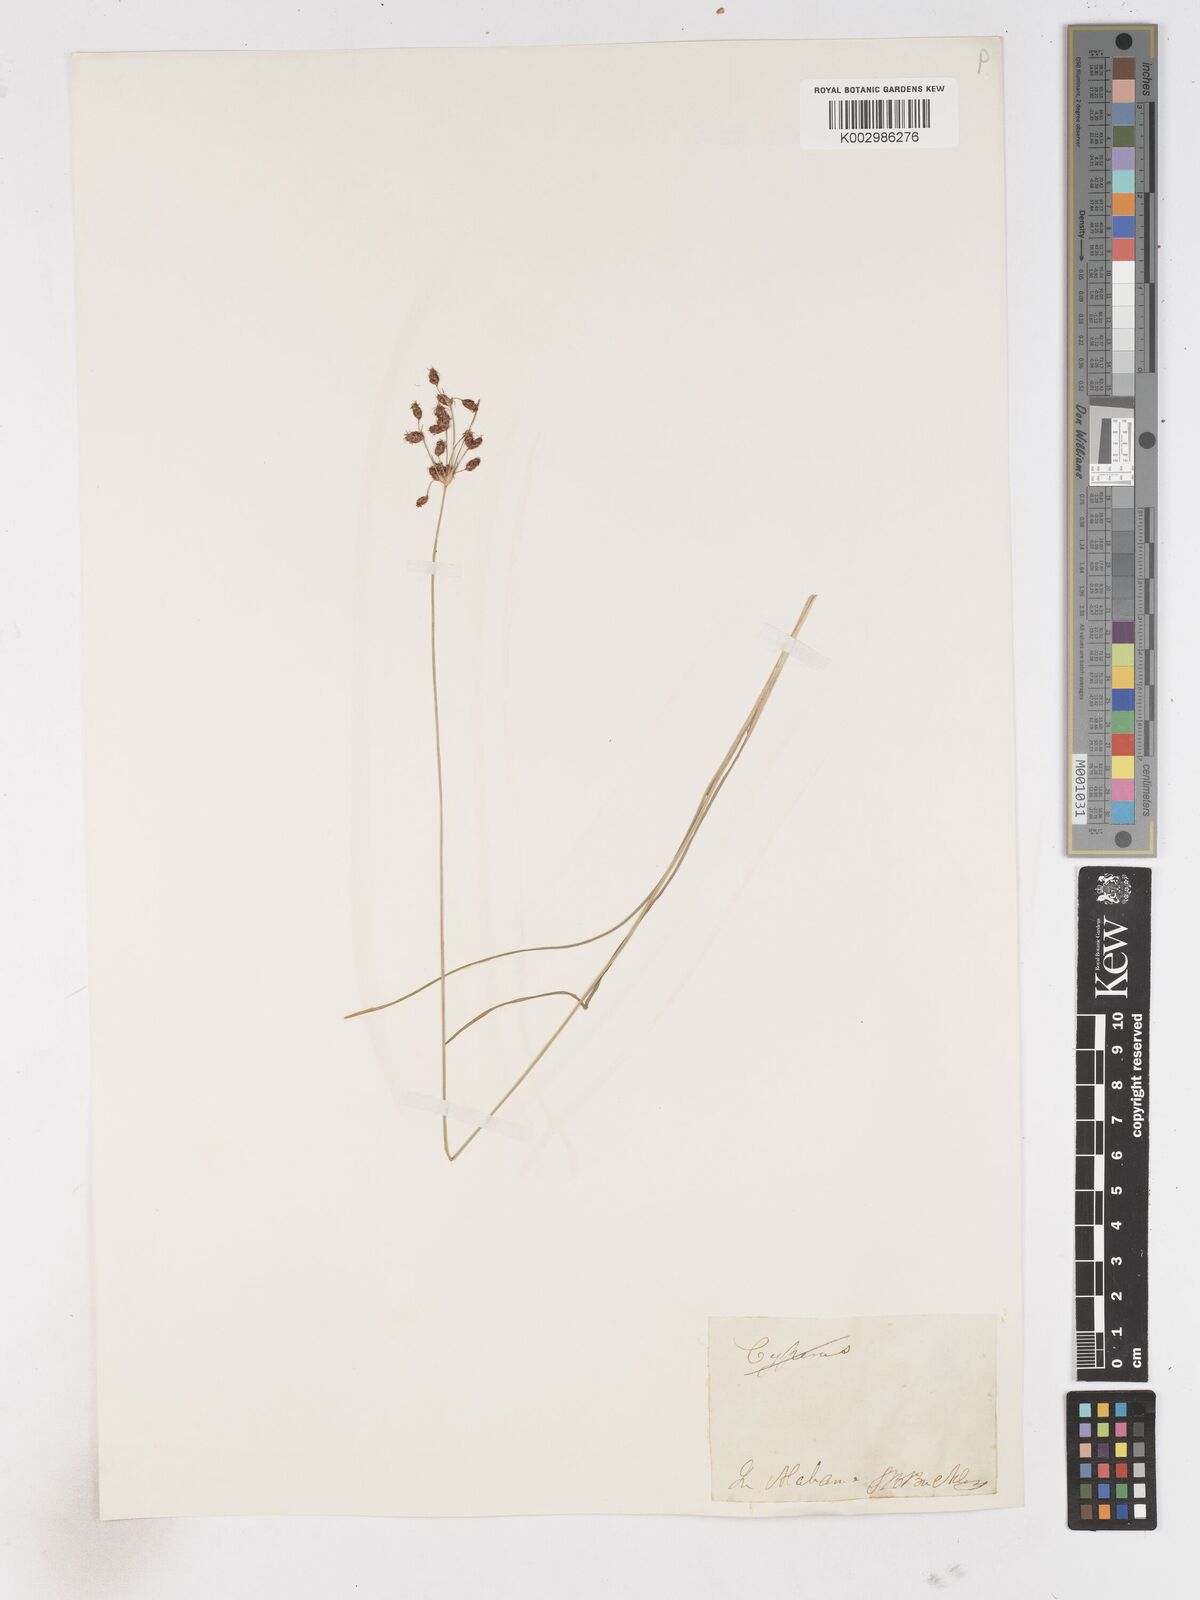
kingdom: Plantae
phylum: Tracheophyta
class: Liliopsida
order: Poales
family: Cyperaceae
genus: Fimbristylis
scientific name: Fimbristylis
